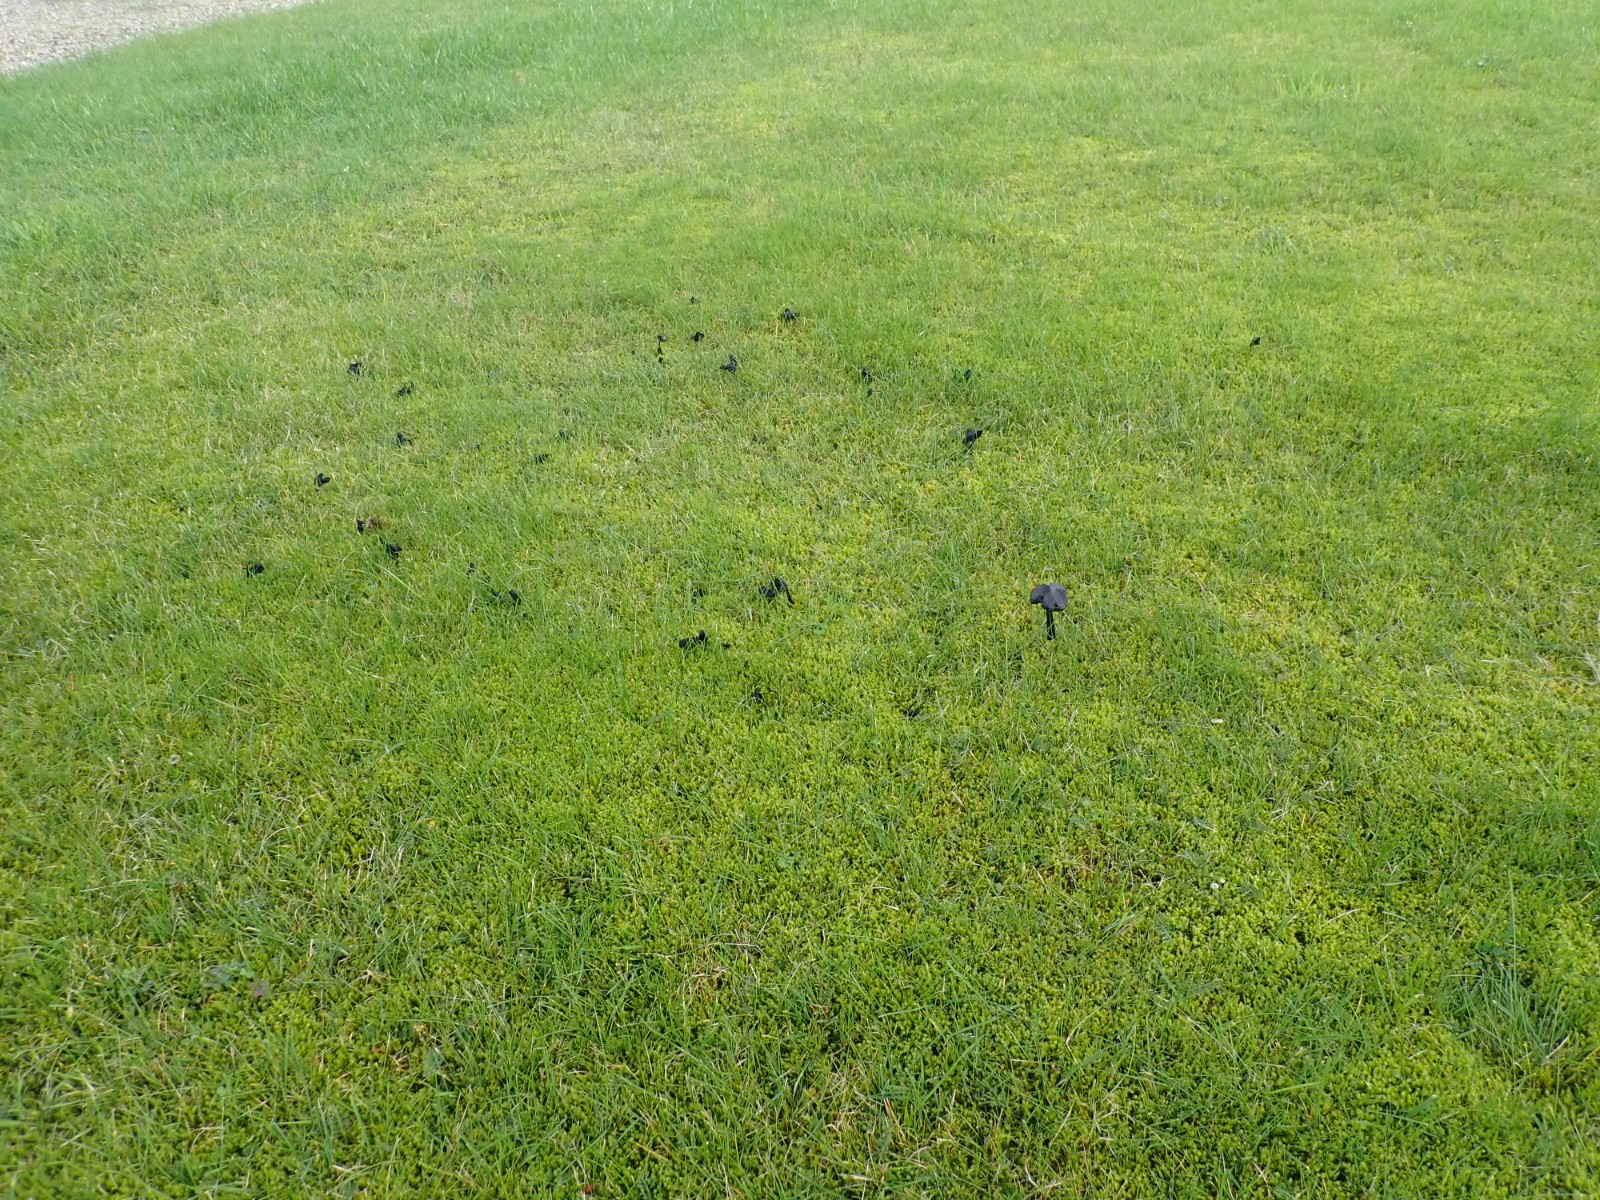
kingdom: Fungi
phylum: Basidiomycota
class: Agaricomycetes
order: Agaricales
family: Hygrophoraceae
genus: Hygrocybe
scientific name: Hygrocybe conica
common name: kegle-vokshat
